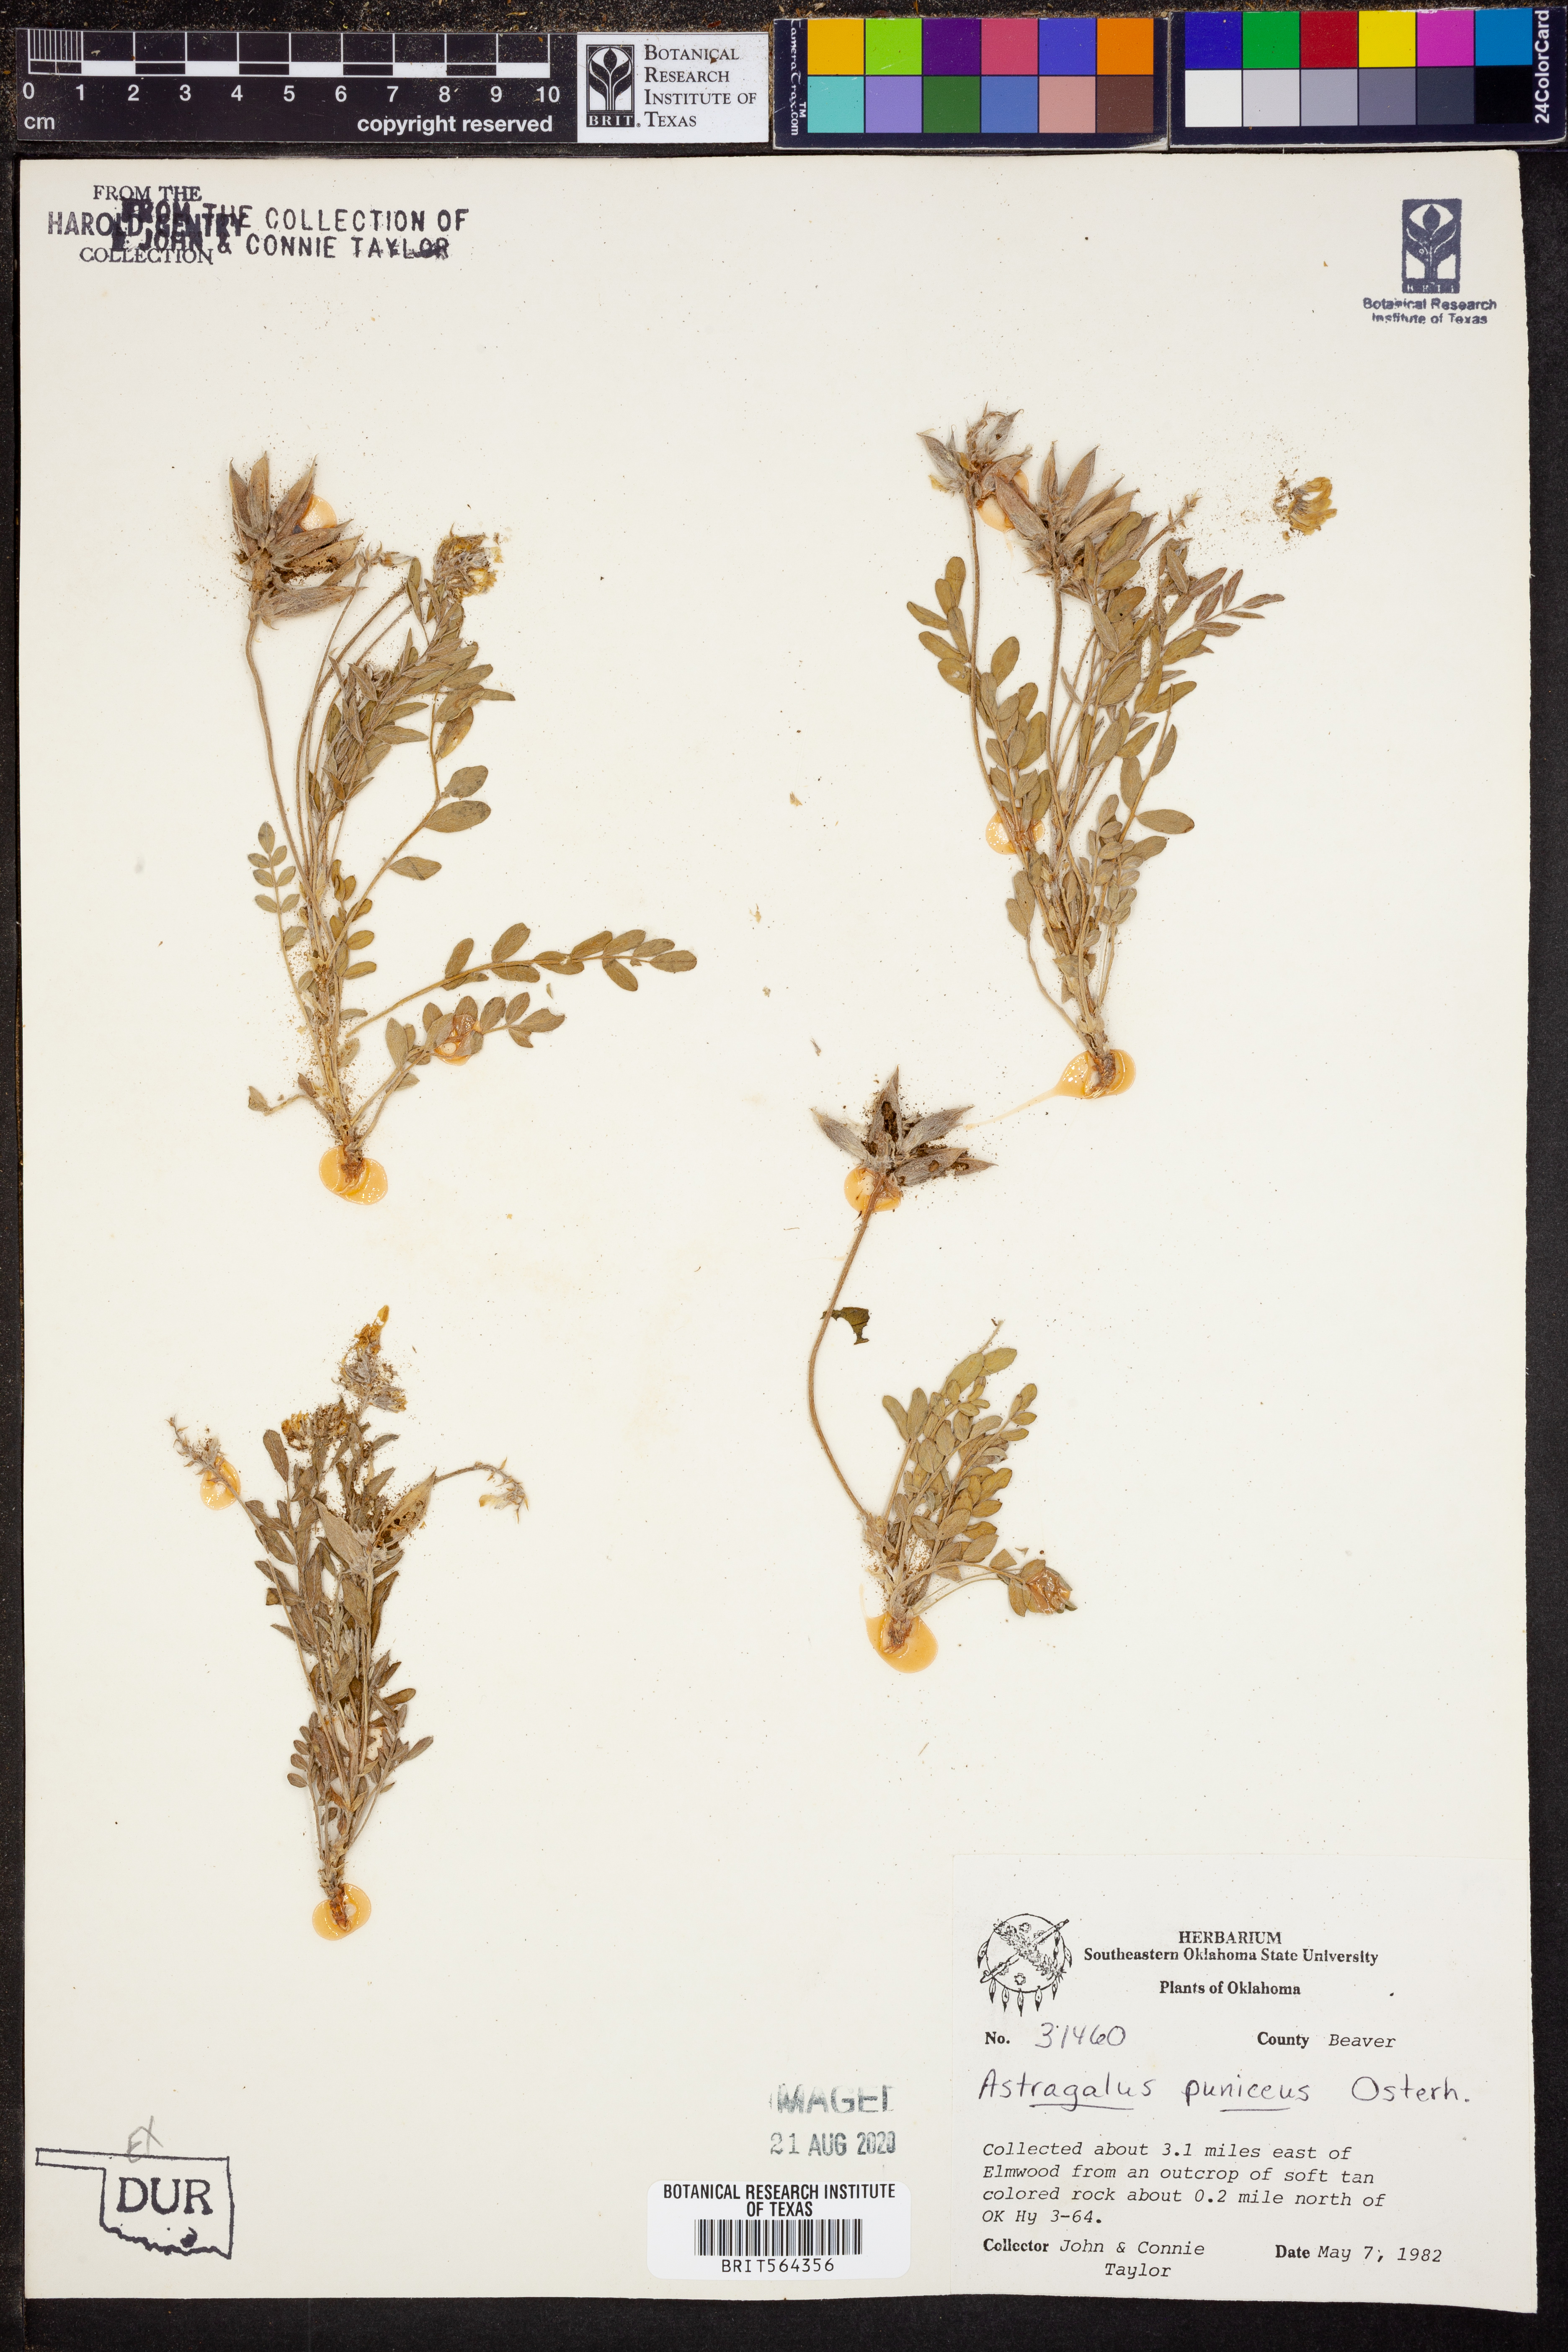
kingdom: Plantae
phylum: Tracheophyta
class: Magnoliopsida
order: Fabales
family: Fabaceae
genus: Astragalus
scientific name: Astragalus puniceus
